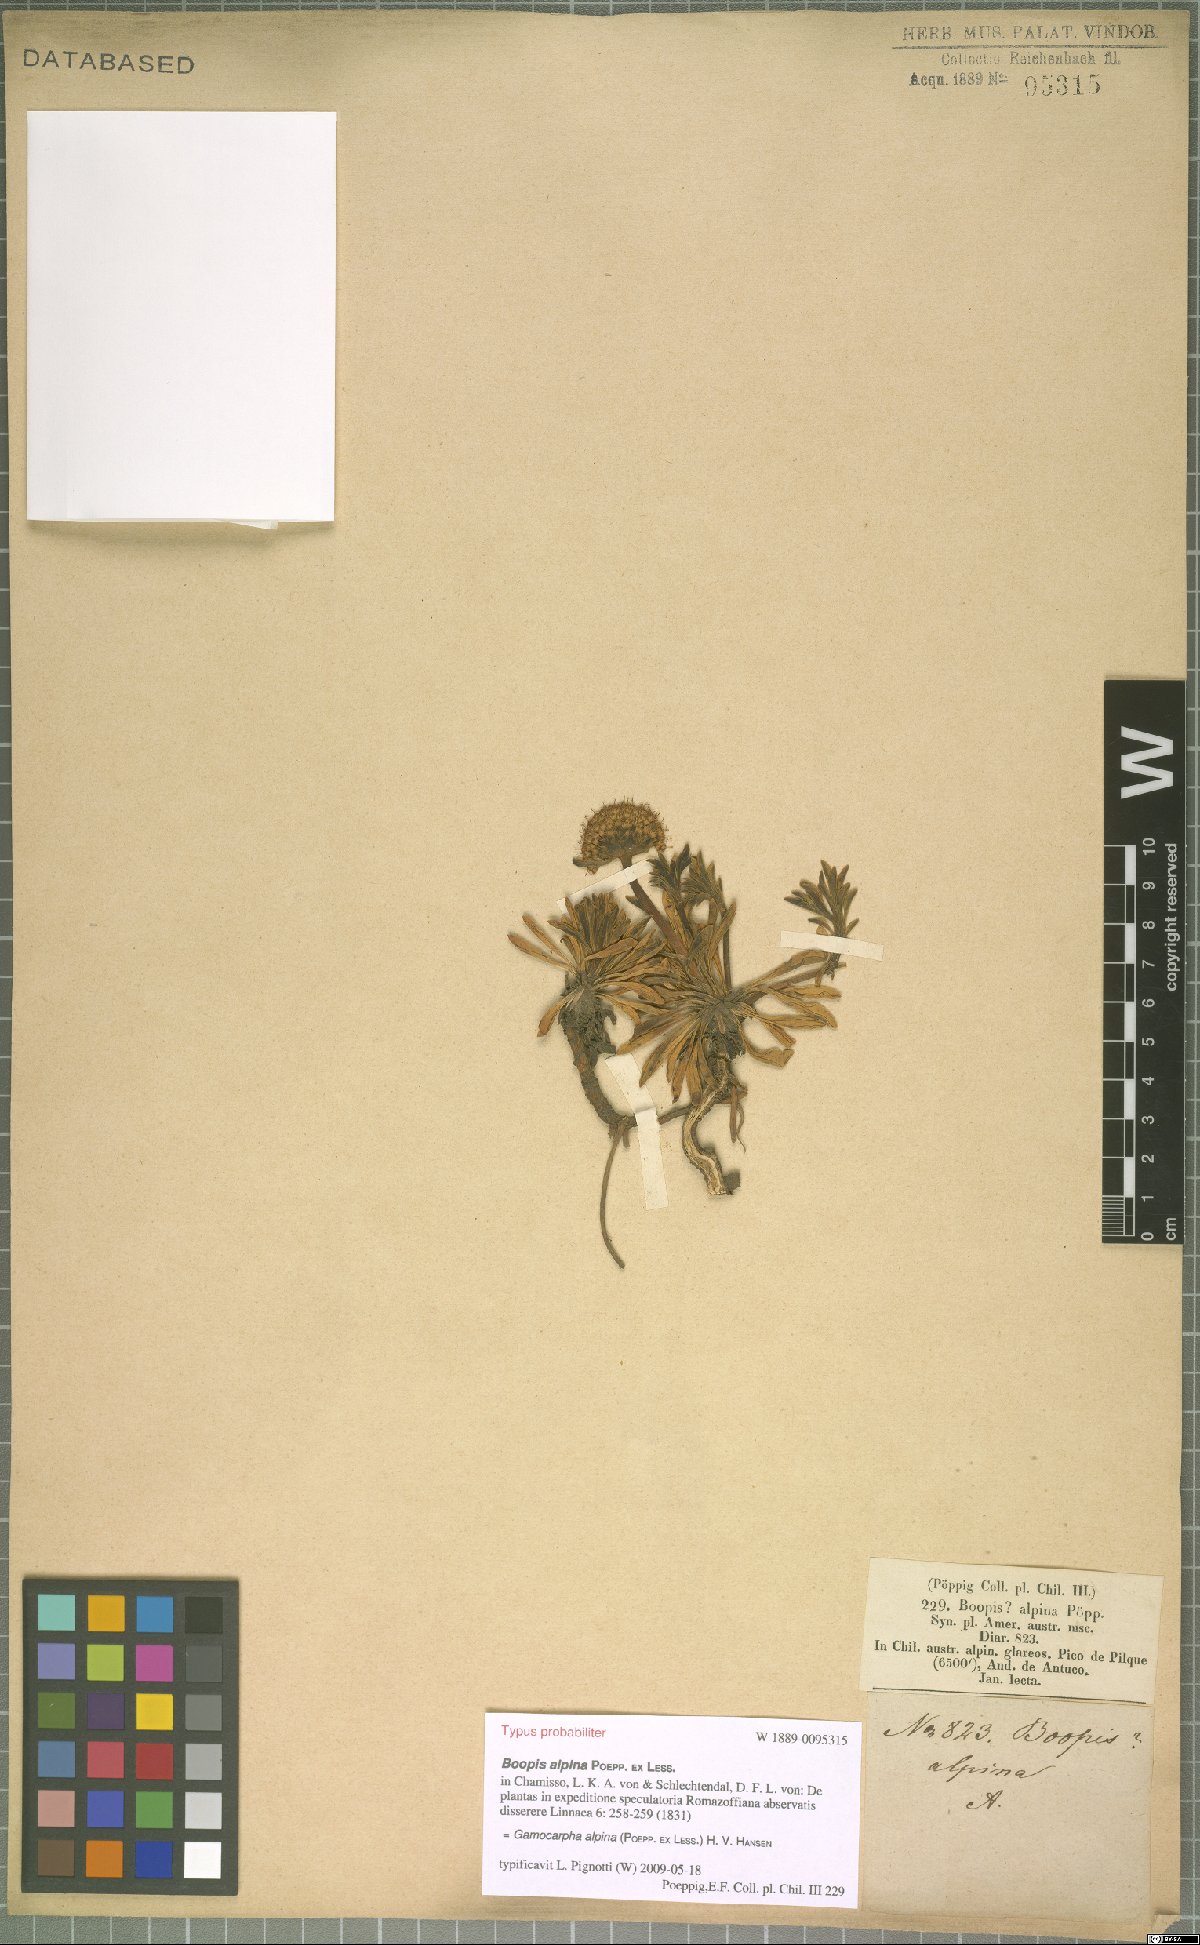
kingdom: Plantae
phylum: Tracheophyta
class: Magnoliopsida
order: Asterales
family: Calyceraceae
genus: Gamocarpha
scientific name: Gamocarpha alpina
